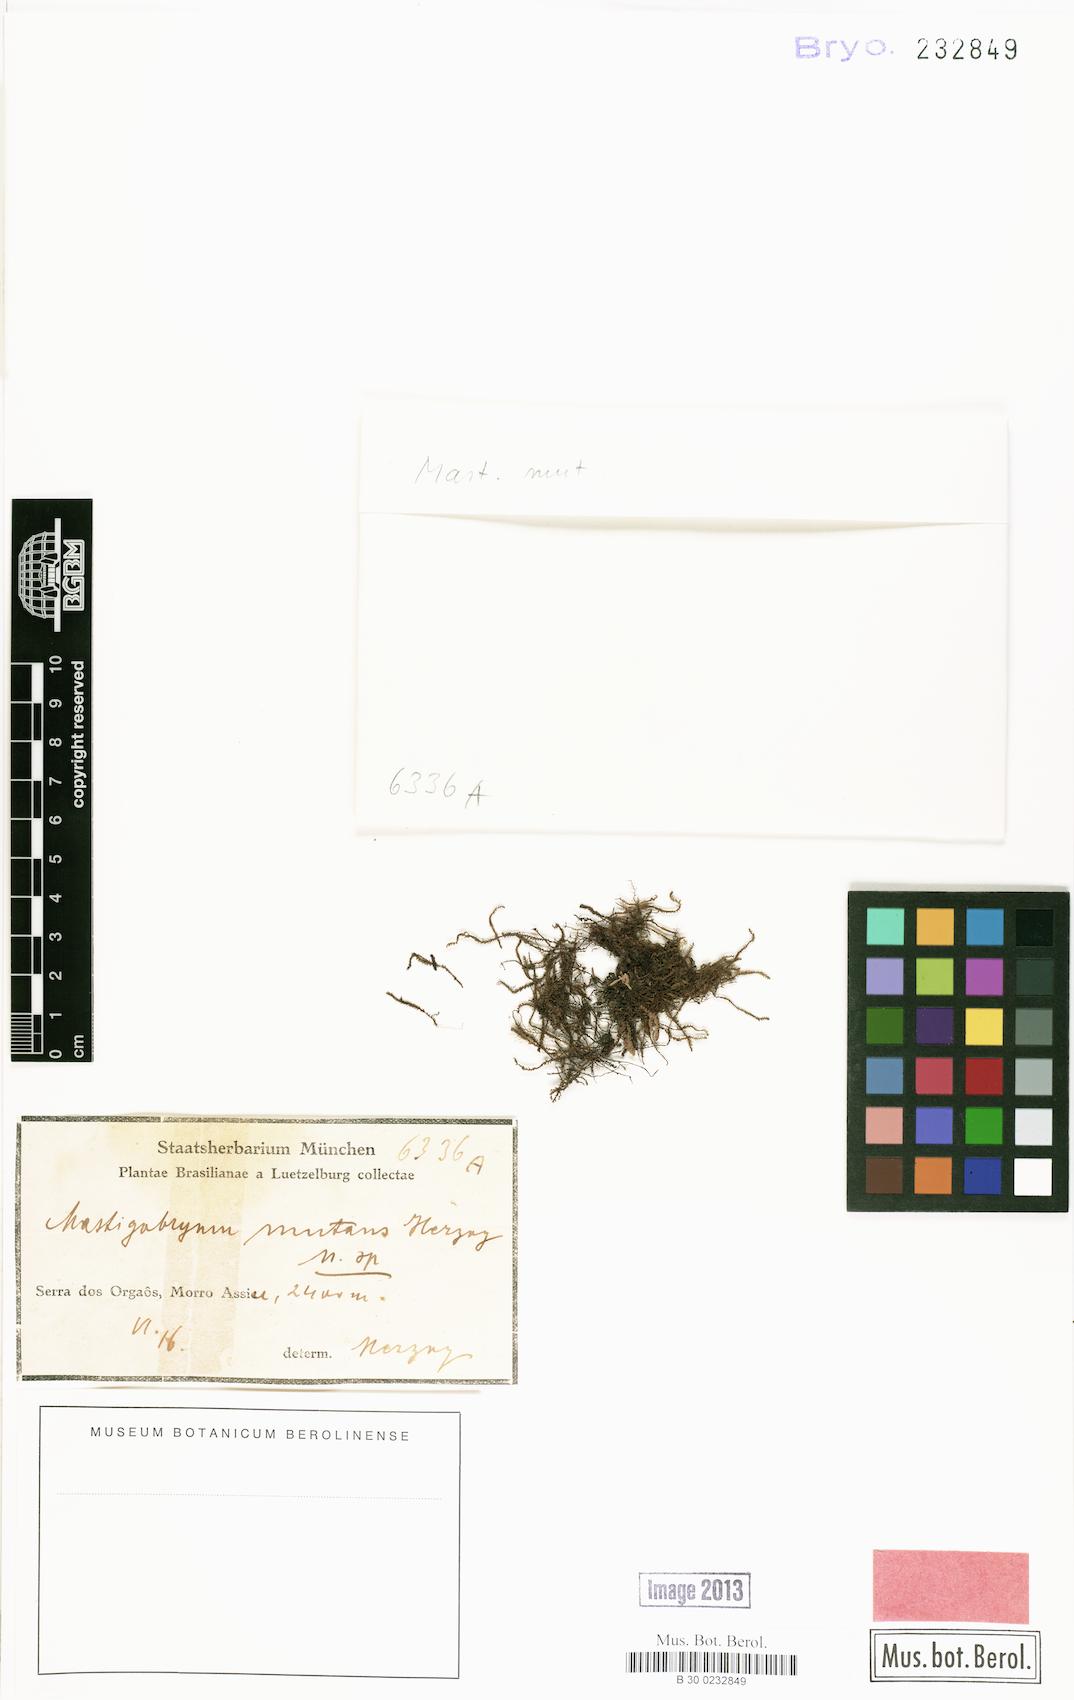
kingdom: Plantae
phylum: Marchantiophyta
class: Jungermanniopsida
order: Jungermanniales
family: Herbertaceae
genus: Triandrophyllum
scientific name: Triandrophyllum subtrifidum
